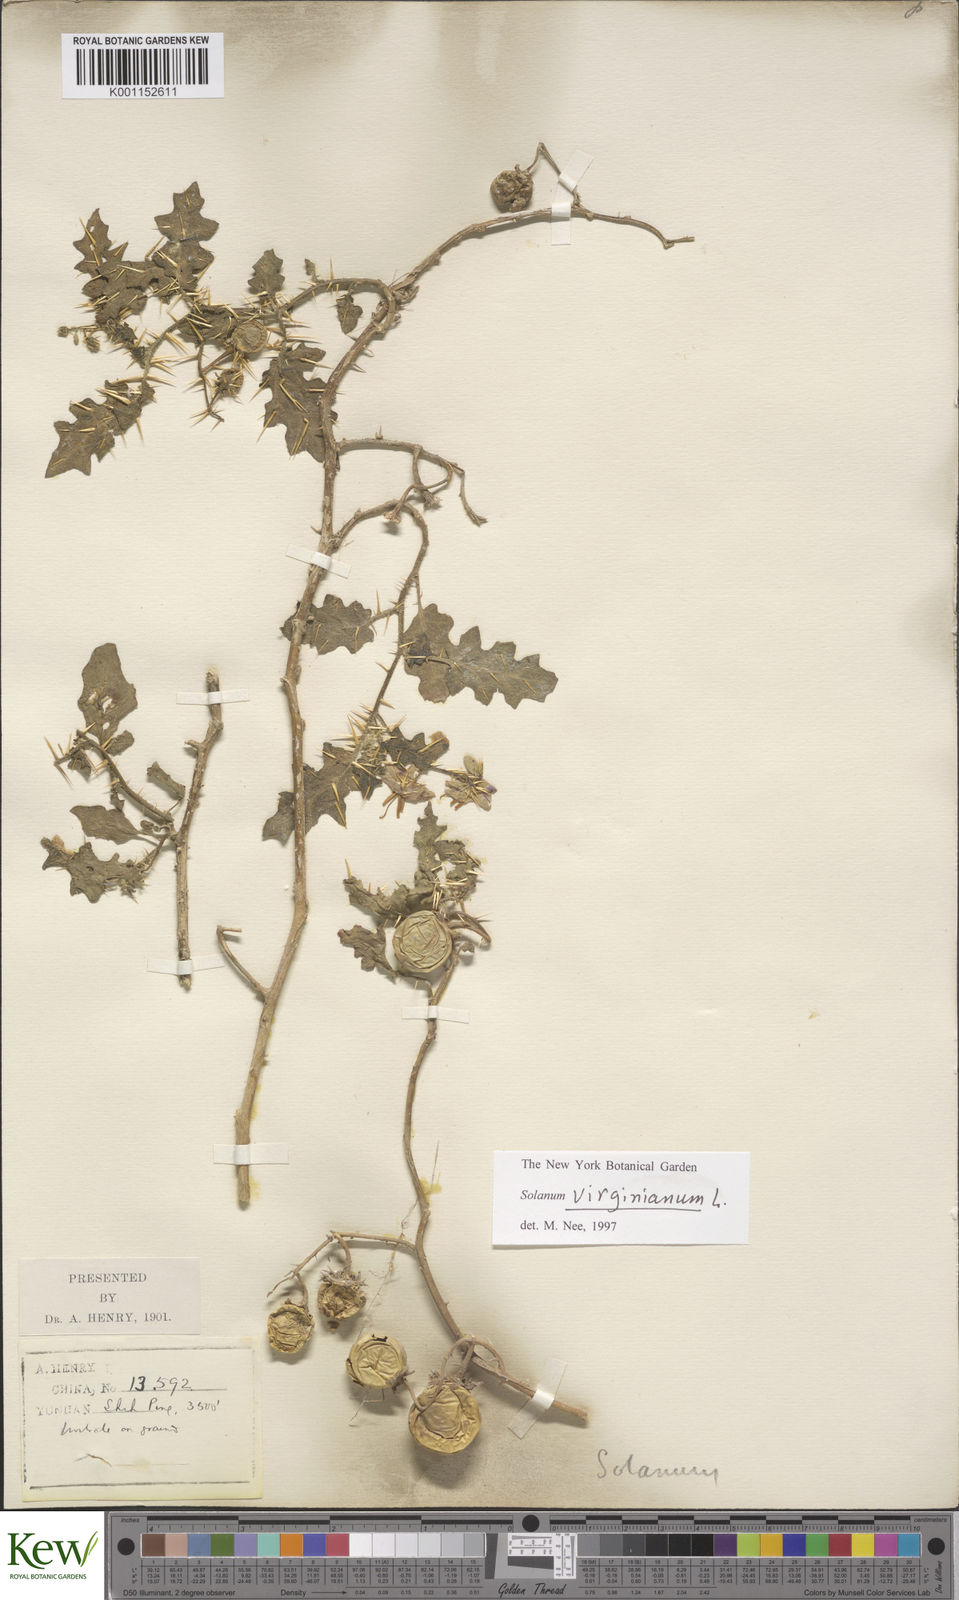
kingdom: Plantae
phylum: Tracheophyta
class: Magnoliopsida
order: Solanales
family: Solanaceae
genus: Solanum
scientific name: Solanum virginianum
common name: Surattense nightshade
